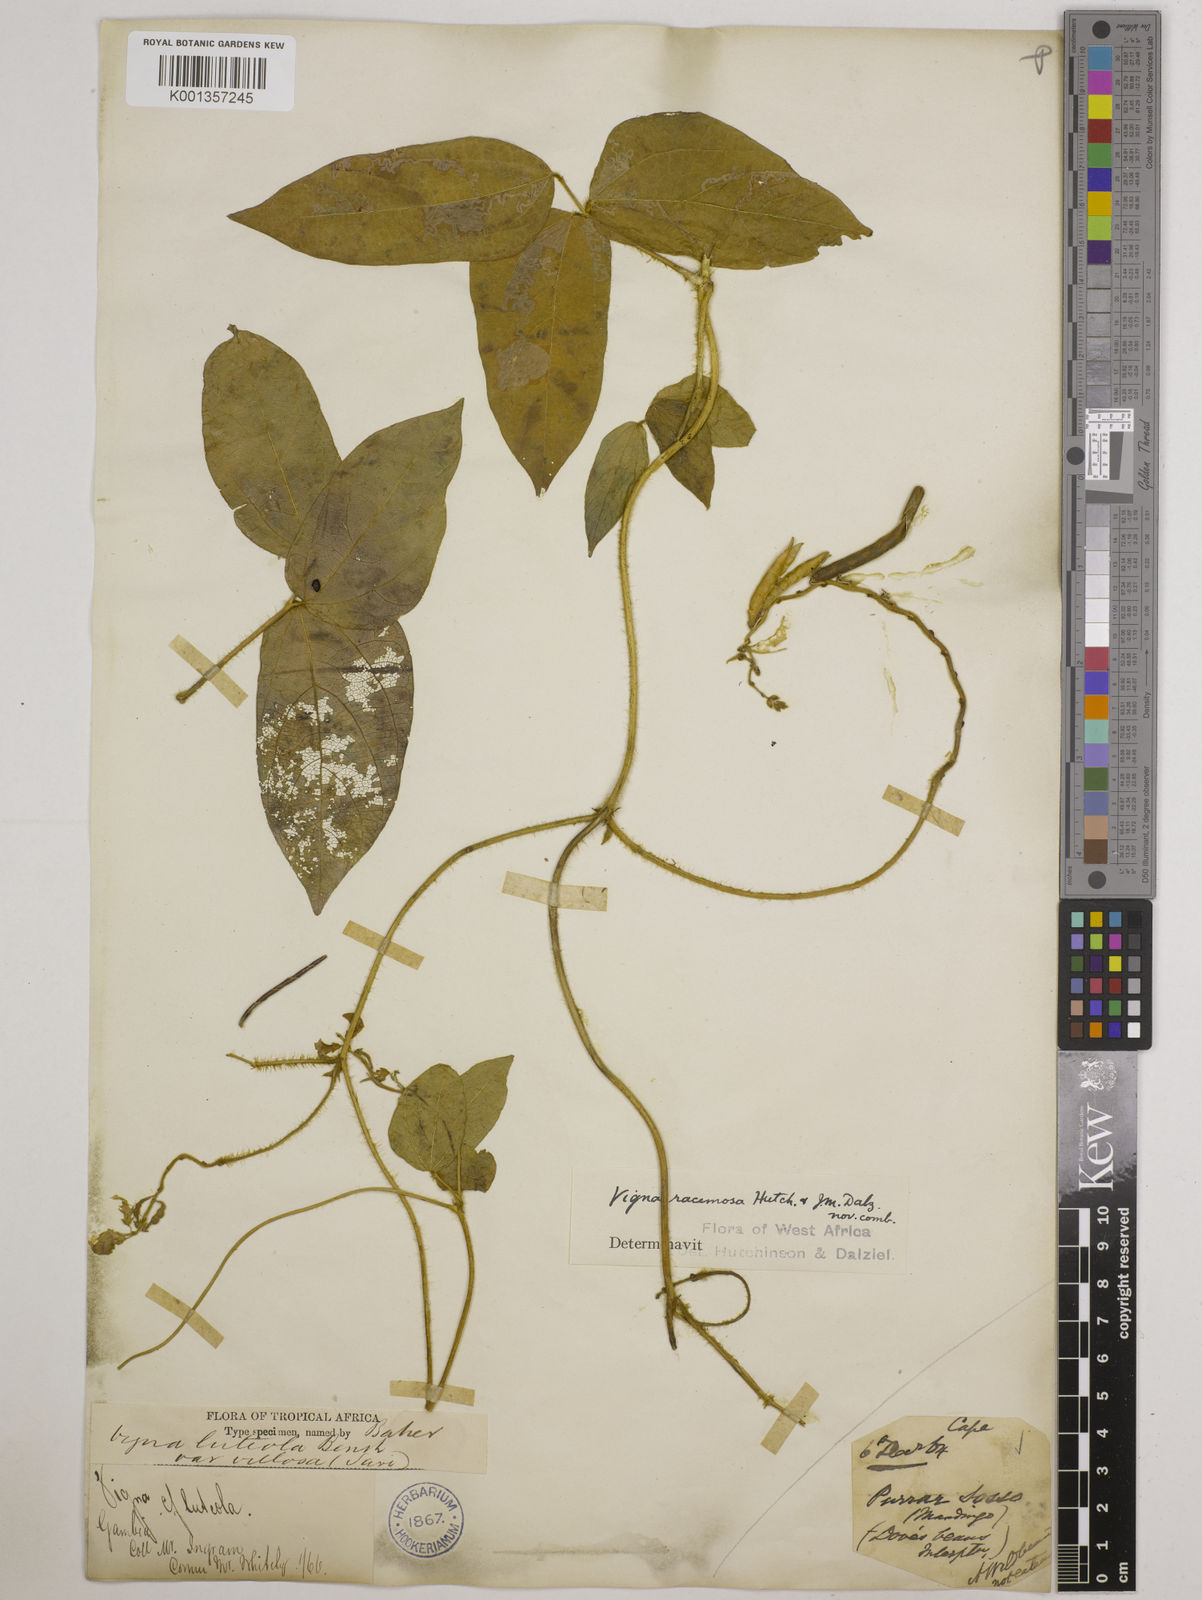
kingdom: Plantae
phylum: Tracheophyta
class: Magnoliopsida
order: Fabales
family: Fabaceae
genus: Vigna
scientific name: Vigna racemosa
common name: Beans not eaten
